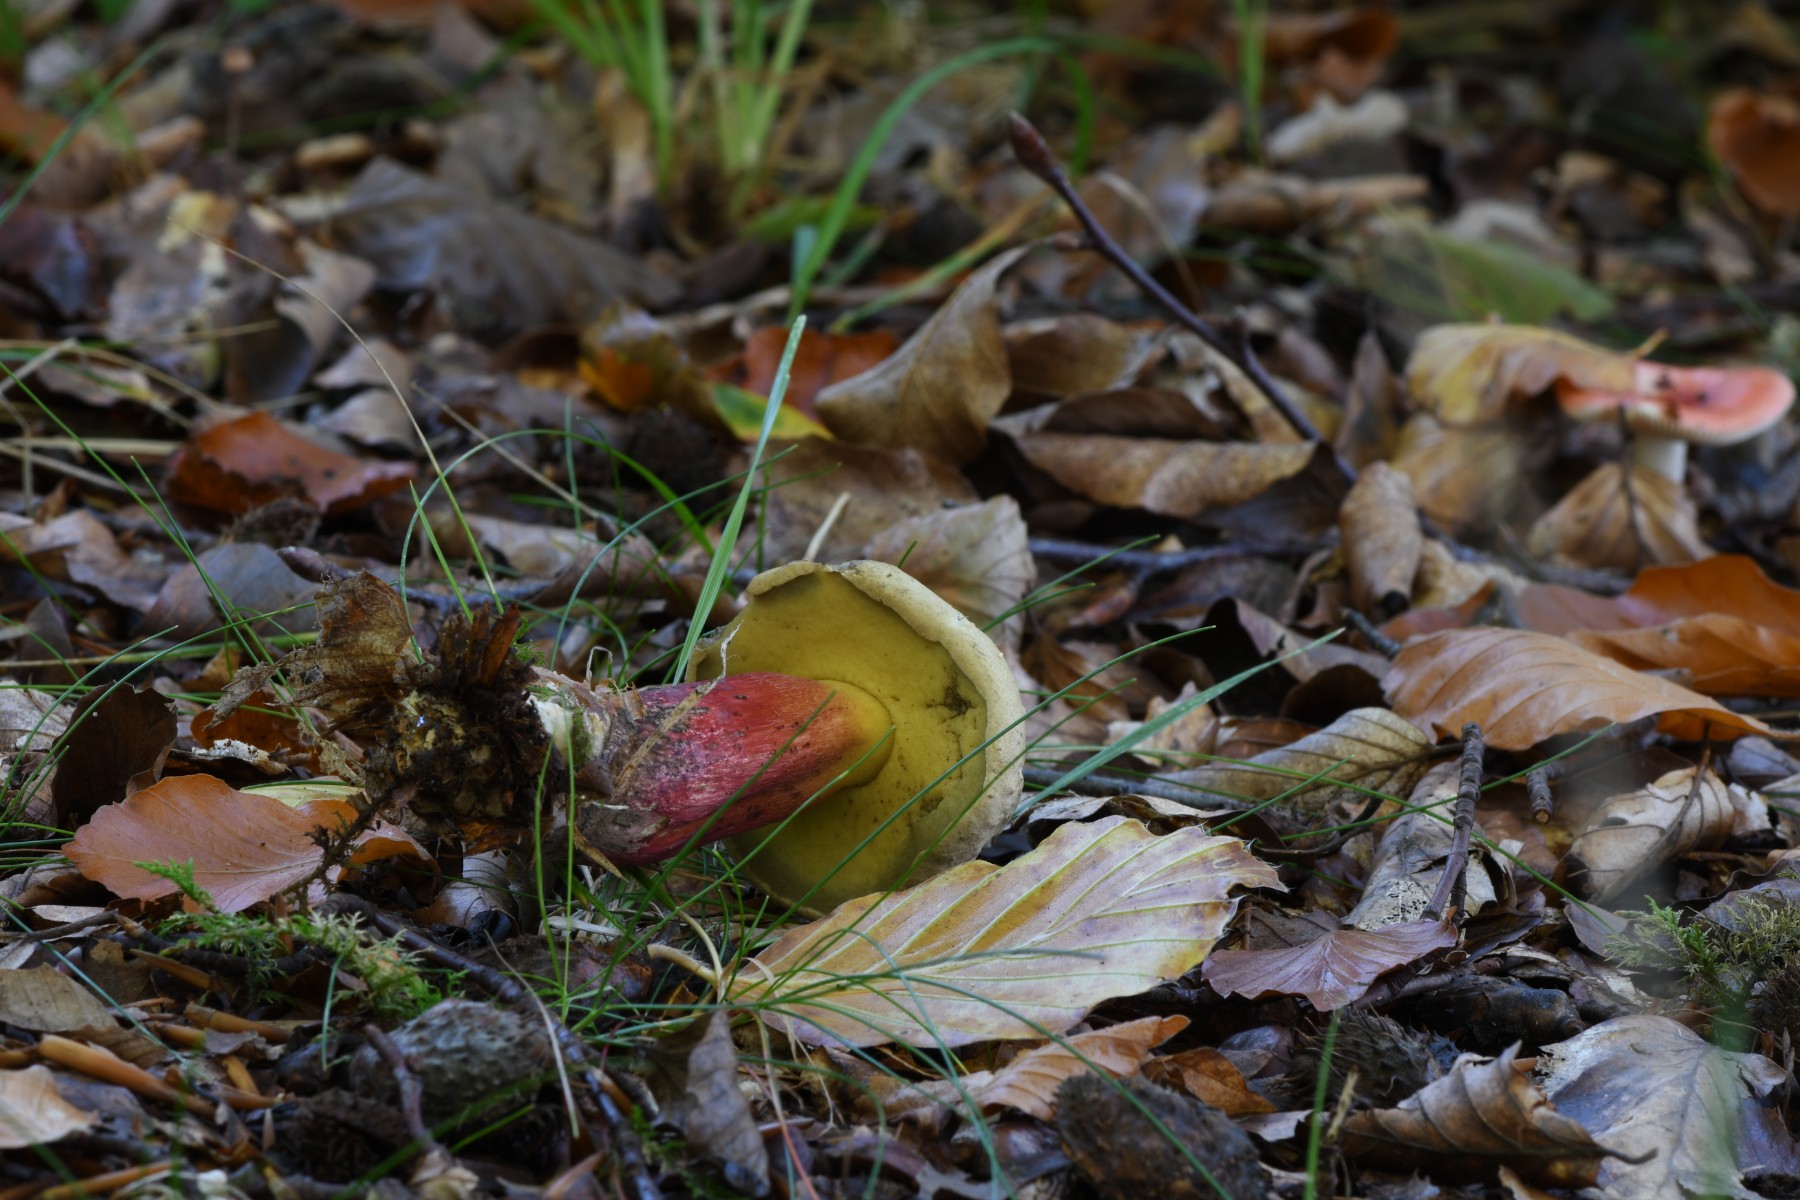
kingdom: Fungi
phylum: Basidiomycota
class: Agaricomycetes
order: Boletales
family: Boletaceae
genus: Caloboletus
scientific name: Caloboletus calopus
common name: skønfodet rørhat
